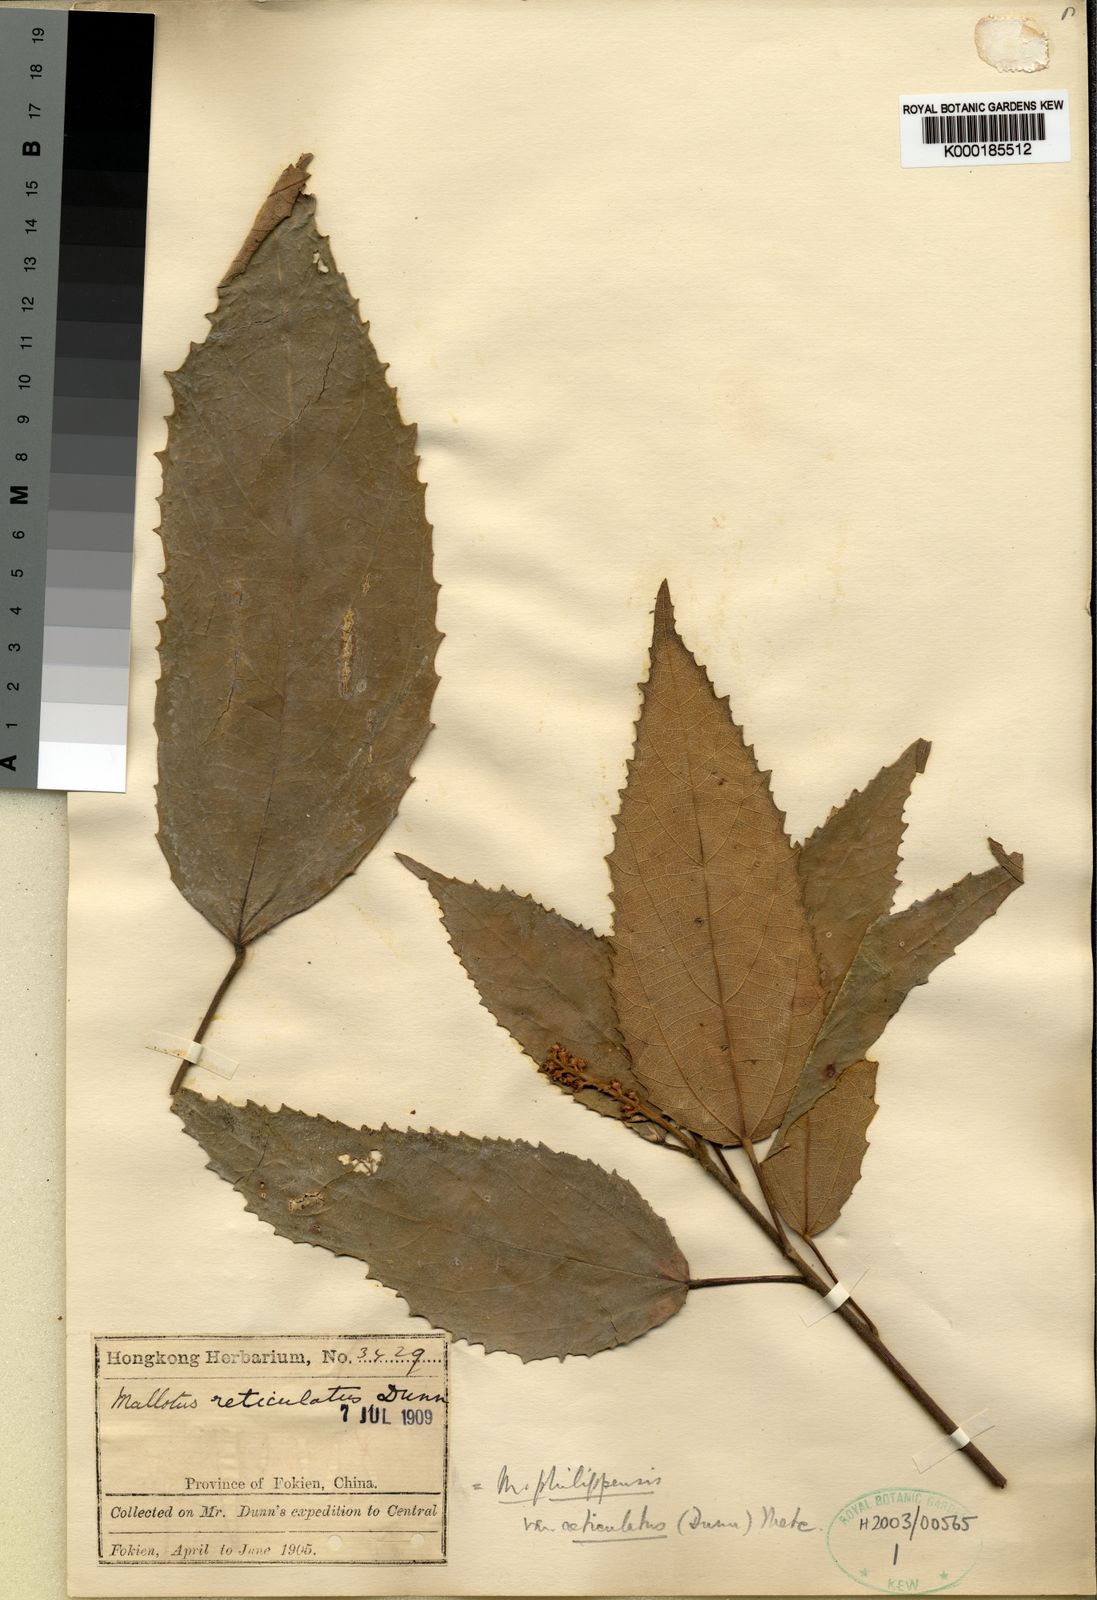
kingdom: Plantae
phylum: Tracheophyta
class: Magnoliopsida
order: Malpighiales
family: Euphorbiaceae
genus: Mallotus
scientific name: Mallotus philippensis
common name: Kamala tree
